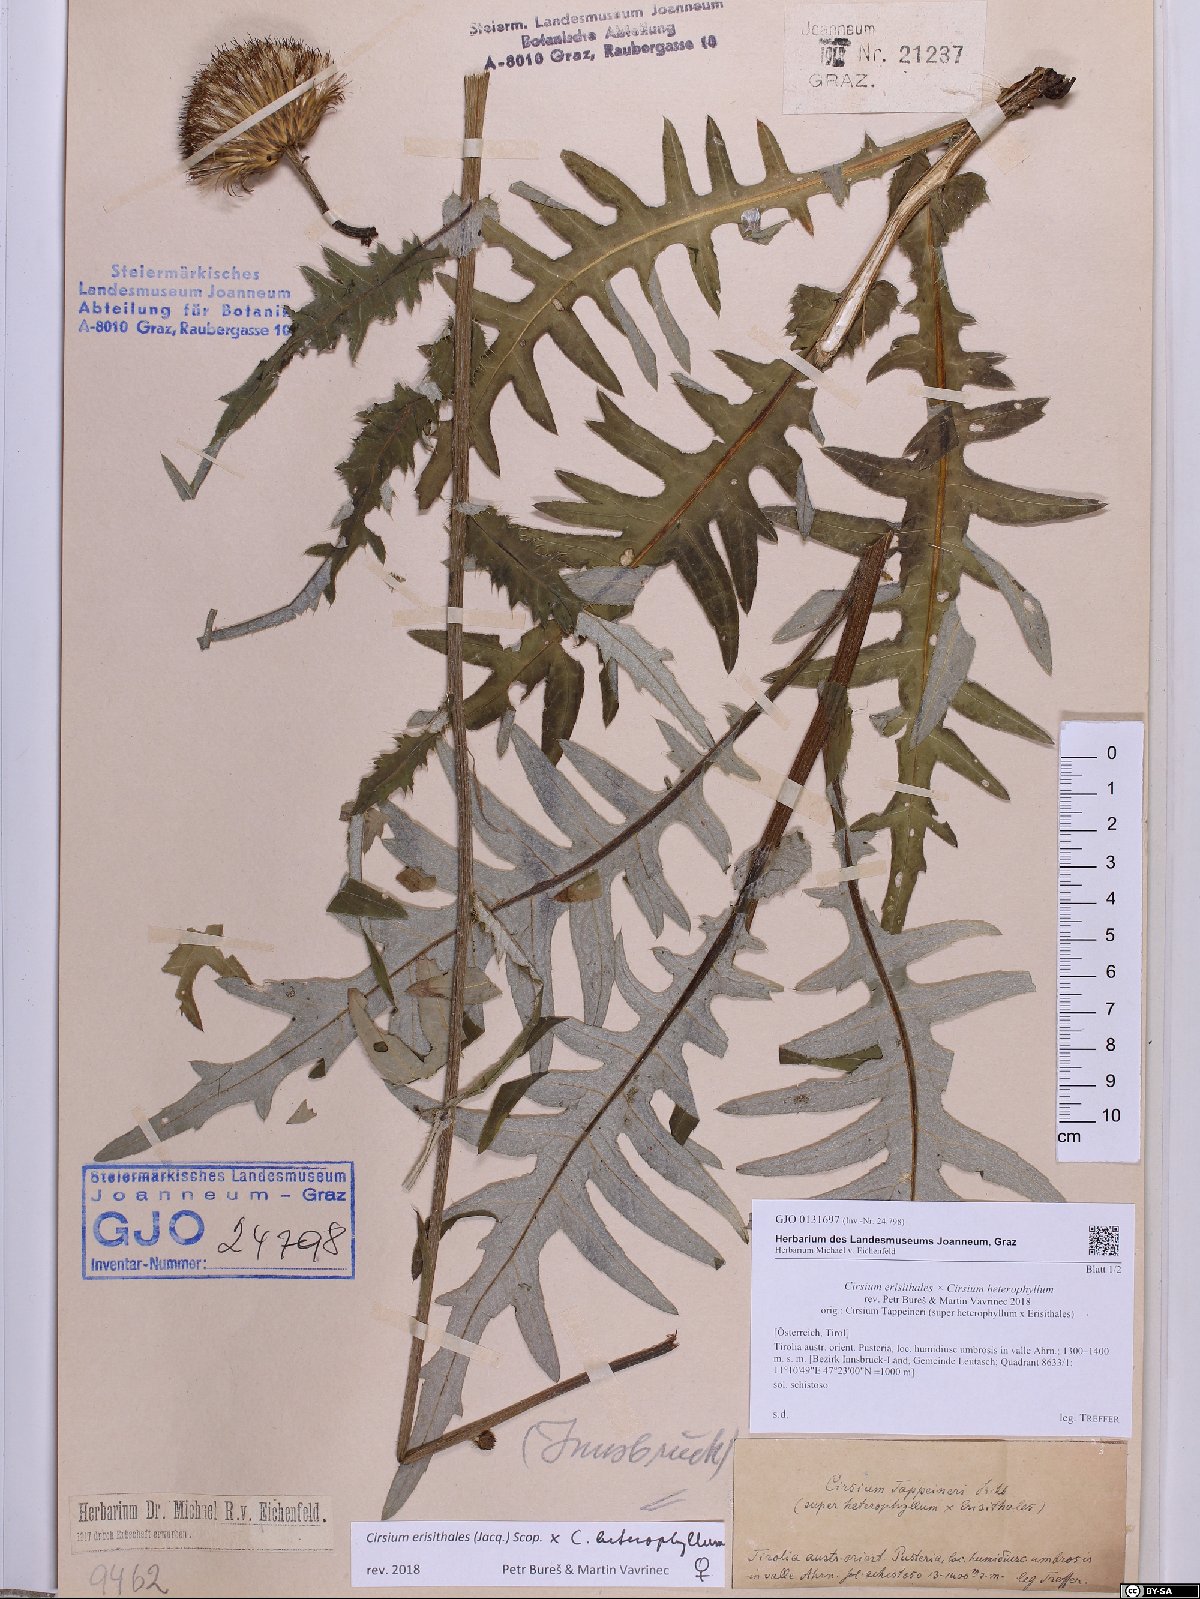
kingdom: Plantae
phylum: Tracheophyta
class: Magnoliopsida
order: Asterales
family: Asteraceae
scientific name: Asteraceae
